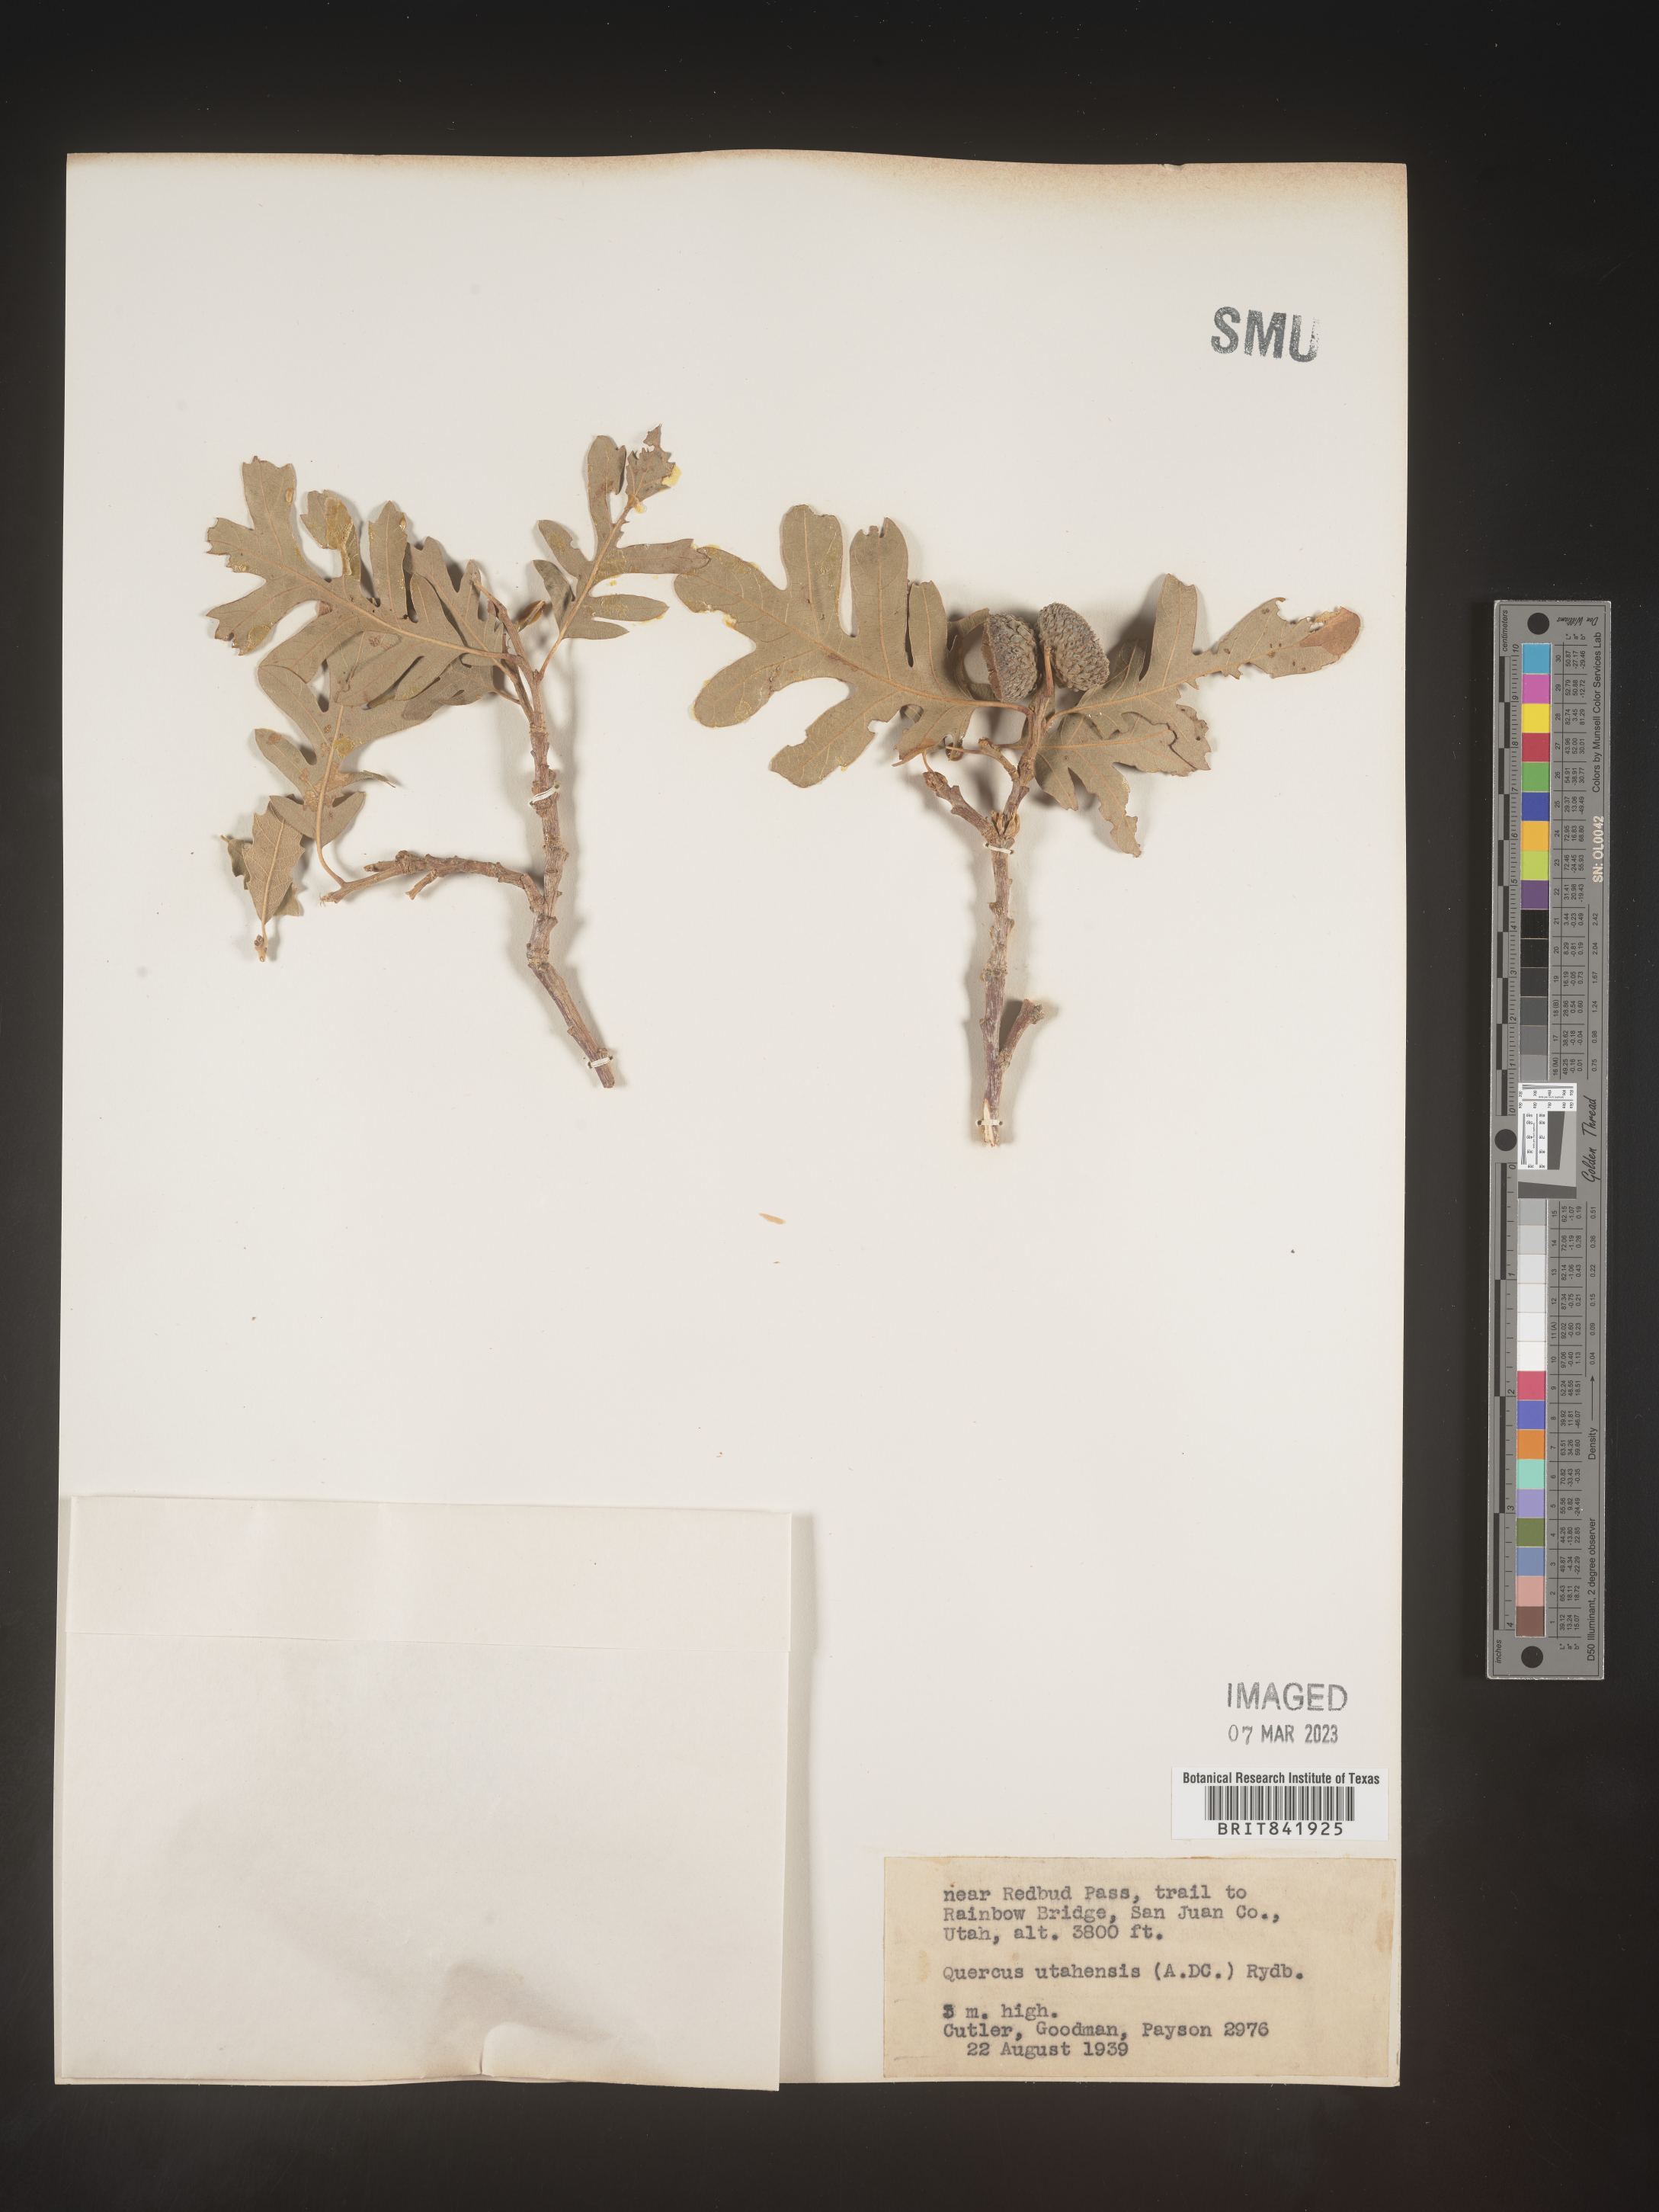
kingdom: Plantae
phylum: Tracheophyta
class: Magnoliopsida
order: Fagales
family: Fagaceae
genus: Quercus
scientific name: Quercus gambelii
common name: Gambel oak
